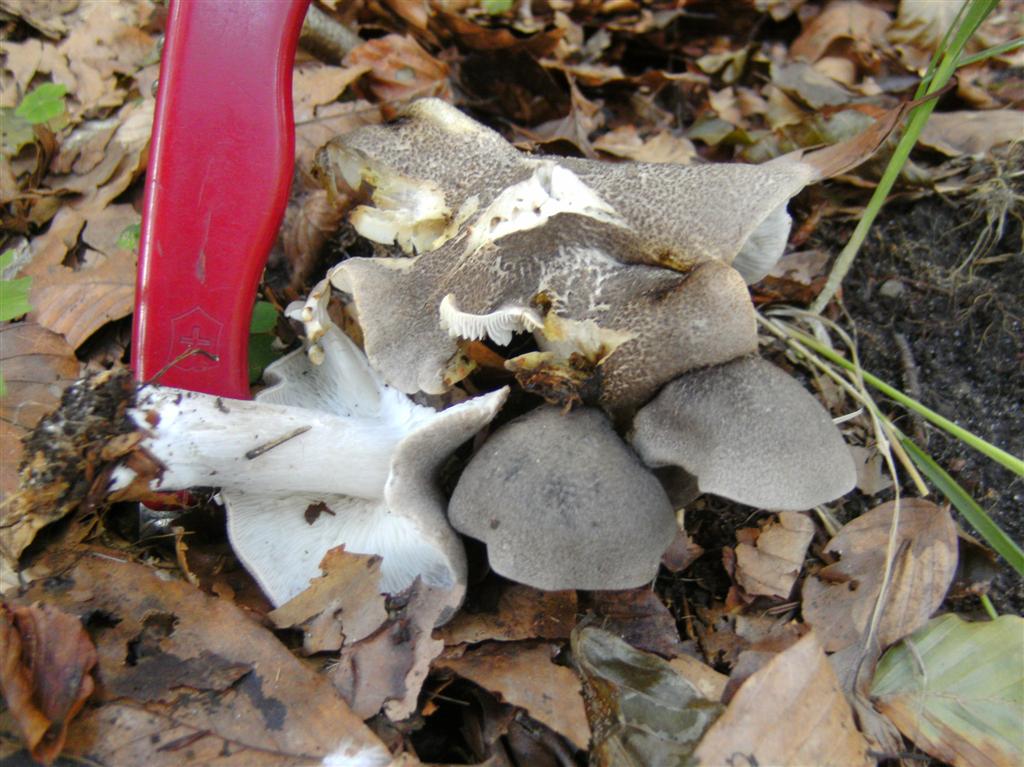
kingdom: Fungi
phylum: Basidiomycota
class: Agaricomycetes
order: Agaricales
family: Tricholomataceae
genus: Tricholoma
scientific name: Tricholoma scalpturatum
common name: gulplettet ridderhat
